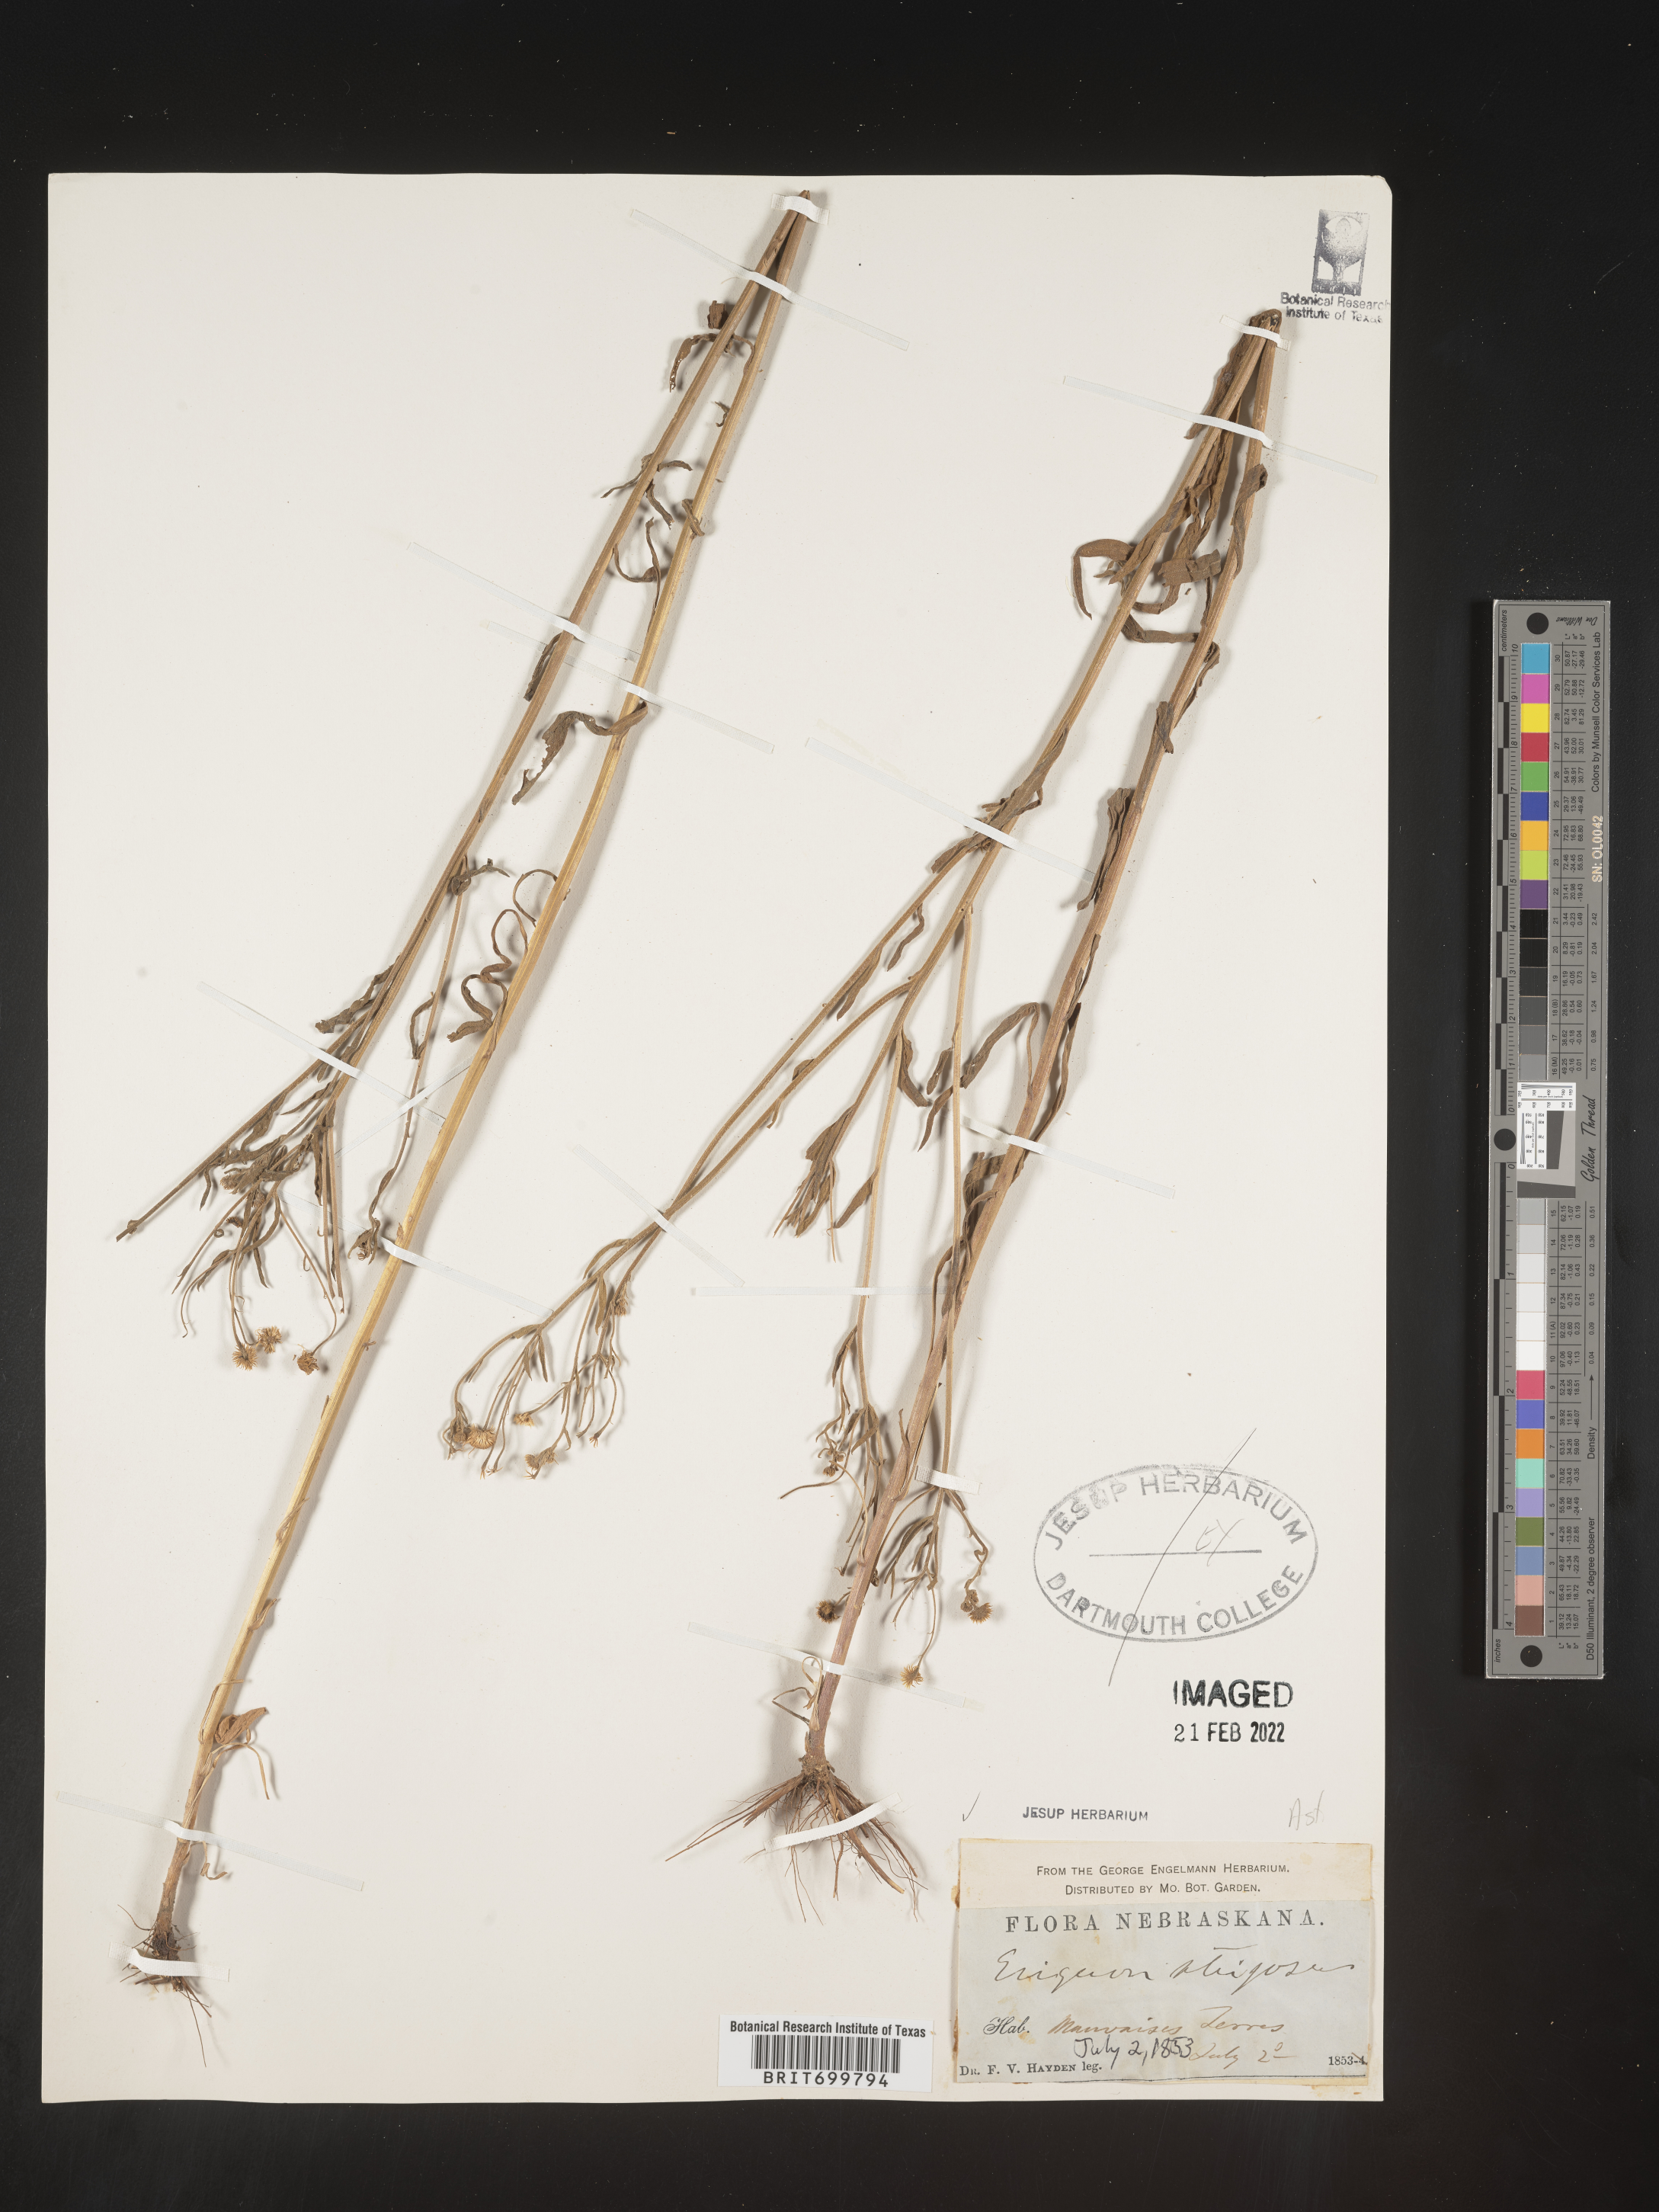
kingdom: Plantae
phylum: Tracheophyta
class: Magnoliopsida
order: Asterales
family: Asteraceae
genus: Erigeron
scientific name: Erigeron strigosus
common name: Common eastern fleabane
